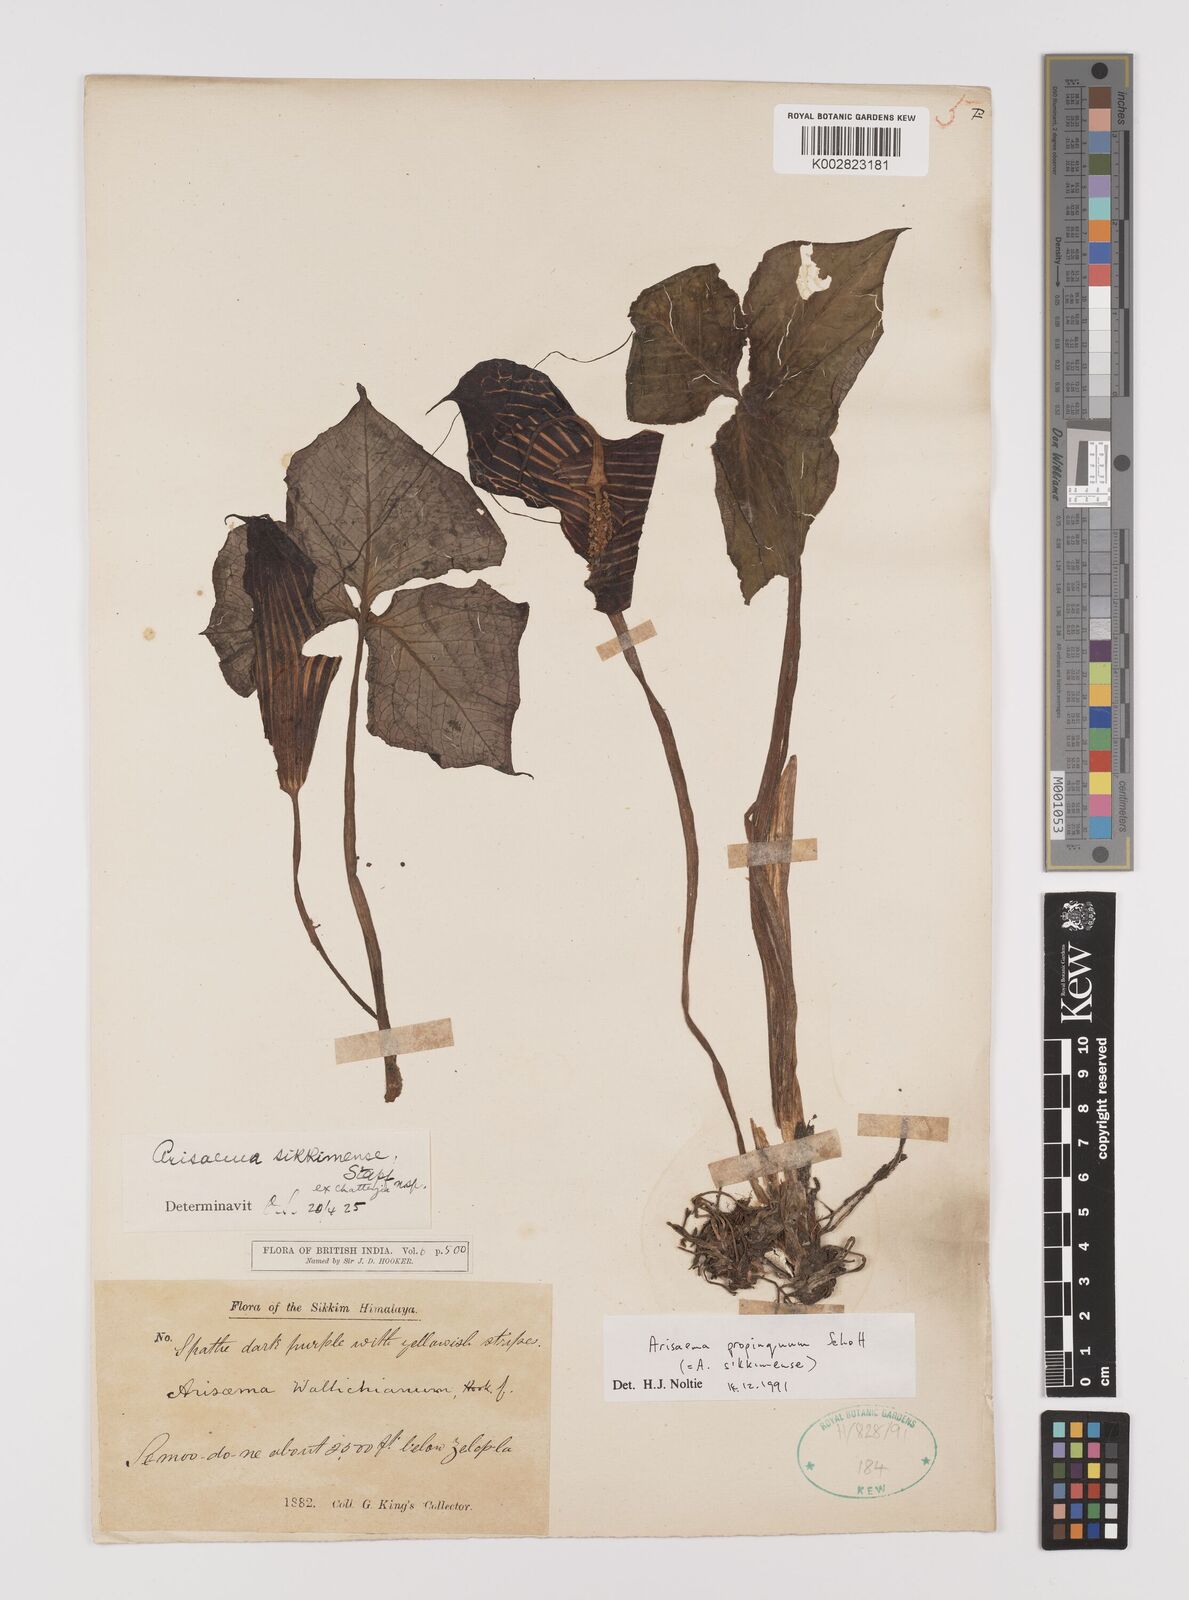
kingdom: Plantae
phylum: Tracheophyta
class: Liliopsida
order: Alismatales
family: Araceae
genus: Arisaema
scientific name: Arisaema propinquum
